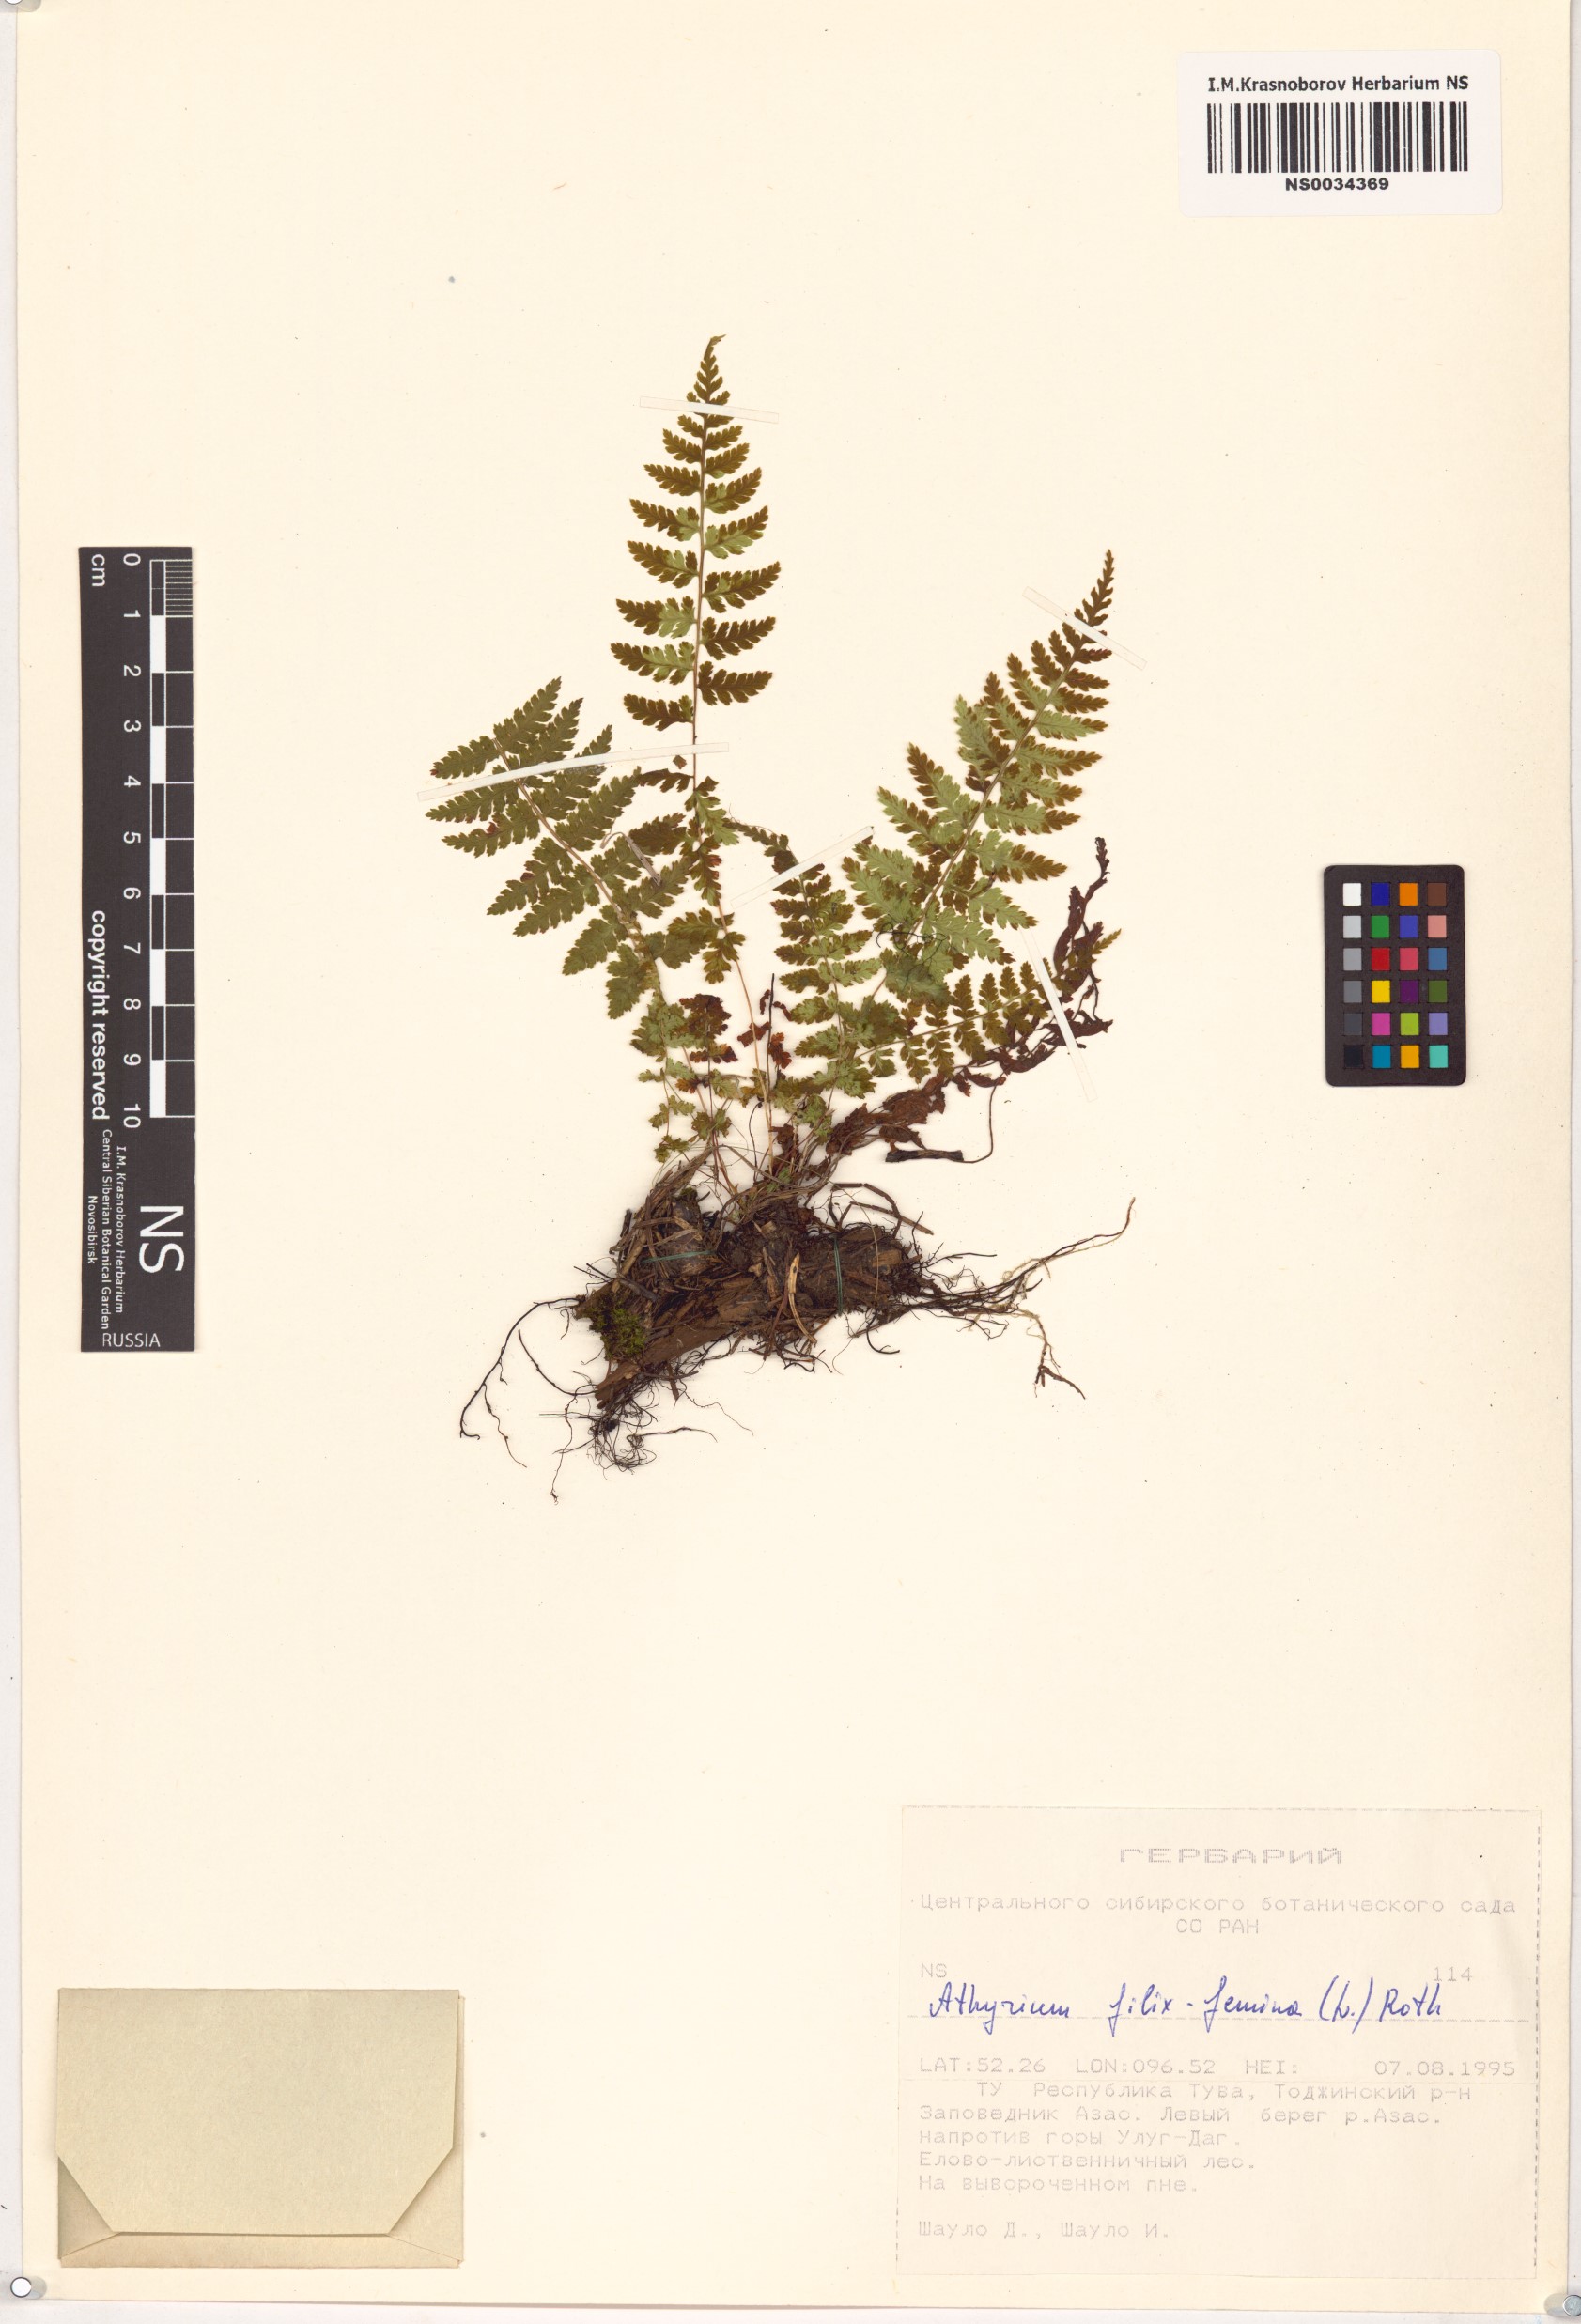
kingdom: Plantae
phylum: Tracheophyta
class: Polypodiopsida
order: Polypodiales
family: Athyriaceae
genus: Athyrium
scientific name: Athyrium filix-femina
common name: Lady fern
